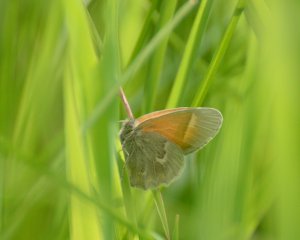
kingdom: Animalia
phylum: Arthropoda
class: Insecta
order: Lepidoptera
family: Nymphalidae
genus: Coenonympha
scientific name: Coenonympha tullia
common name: Large Heath
